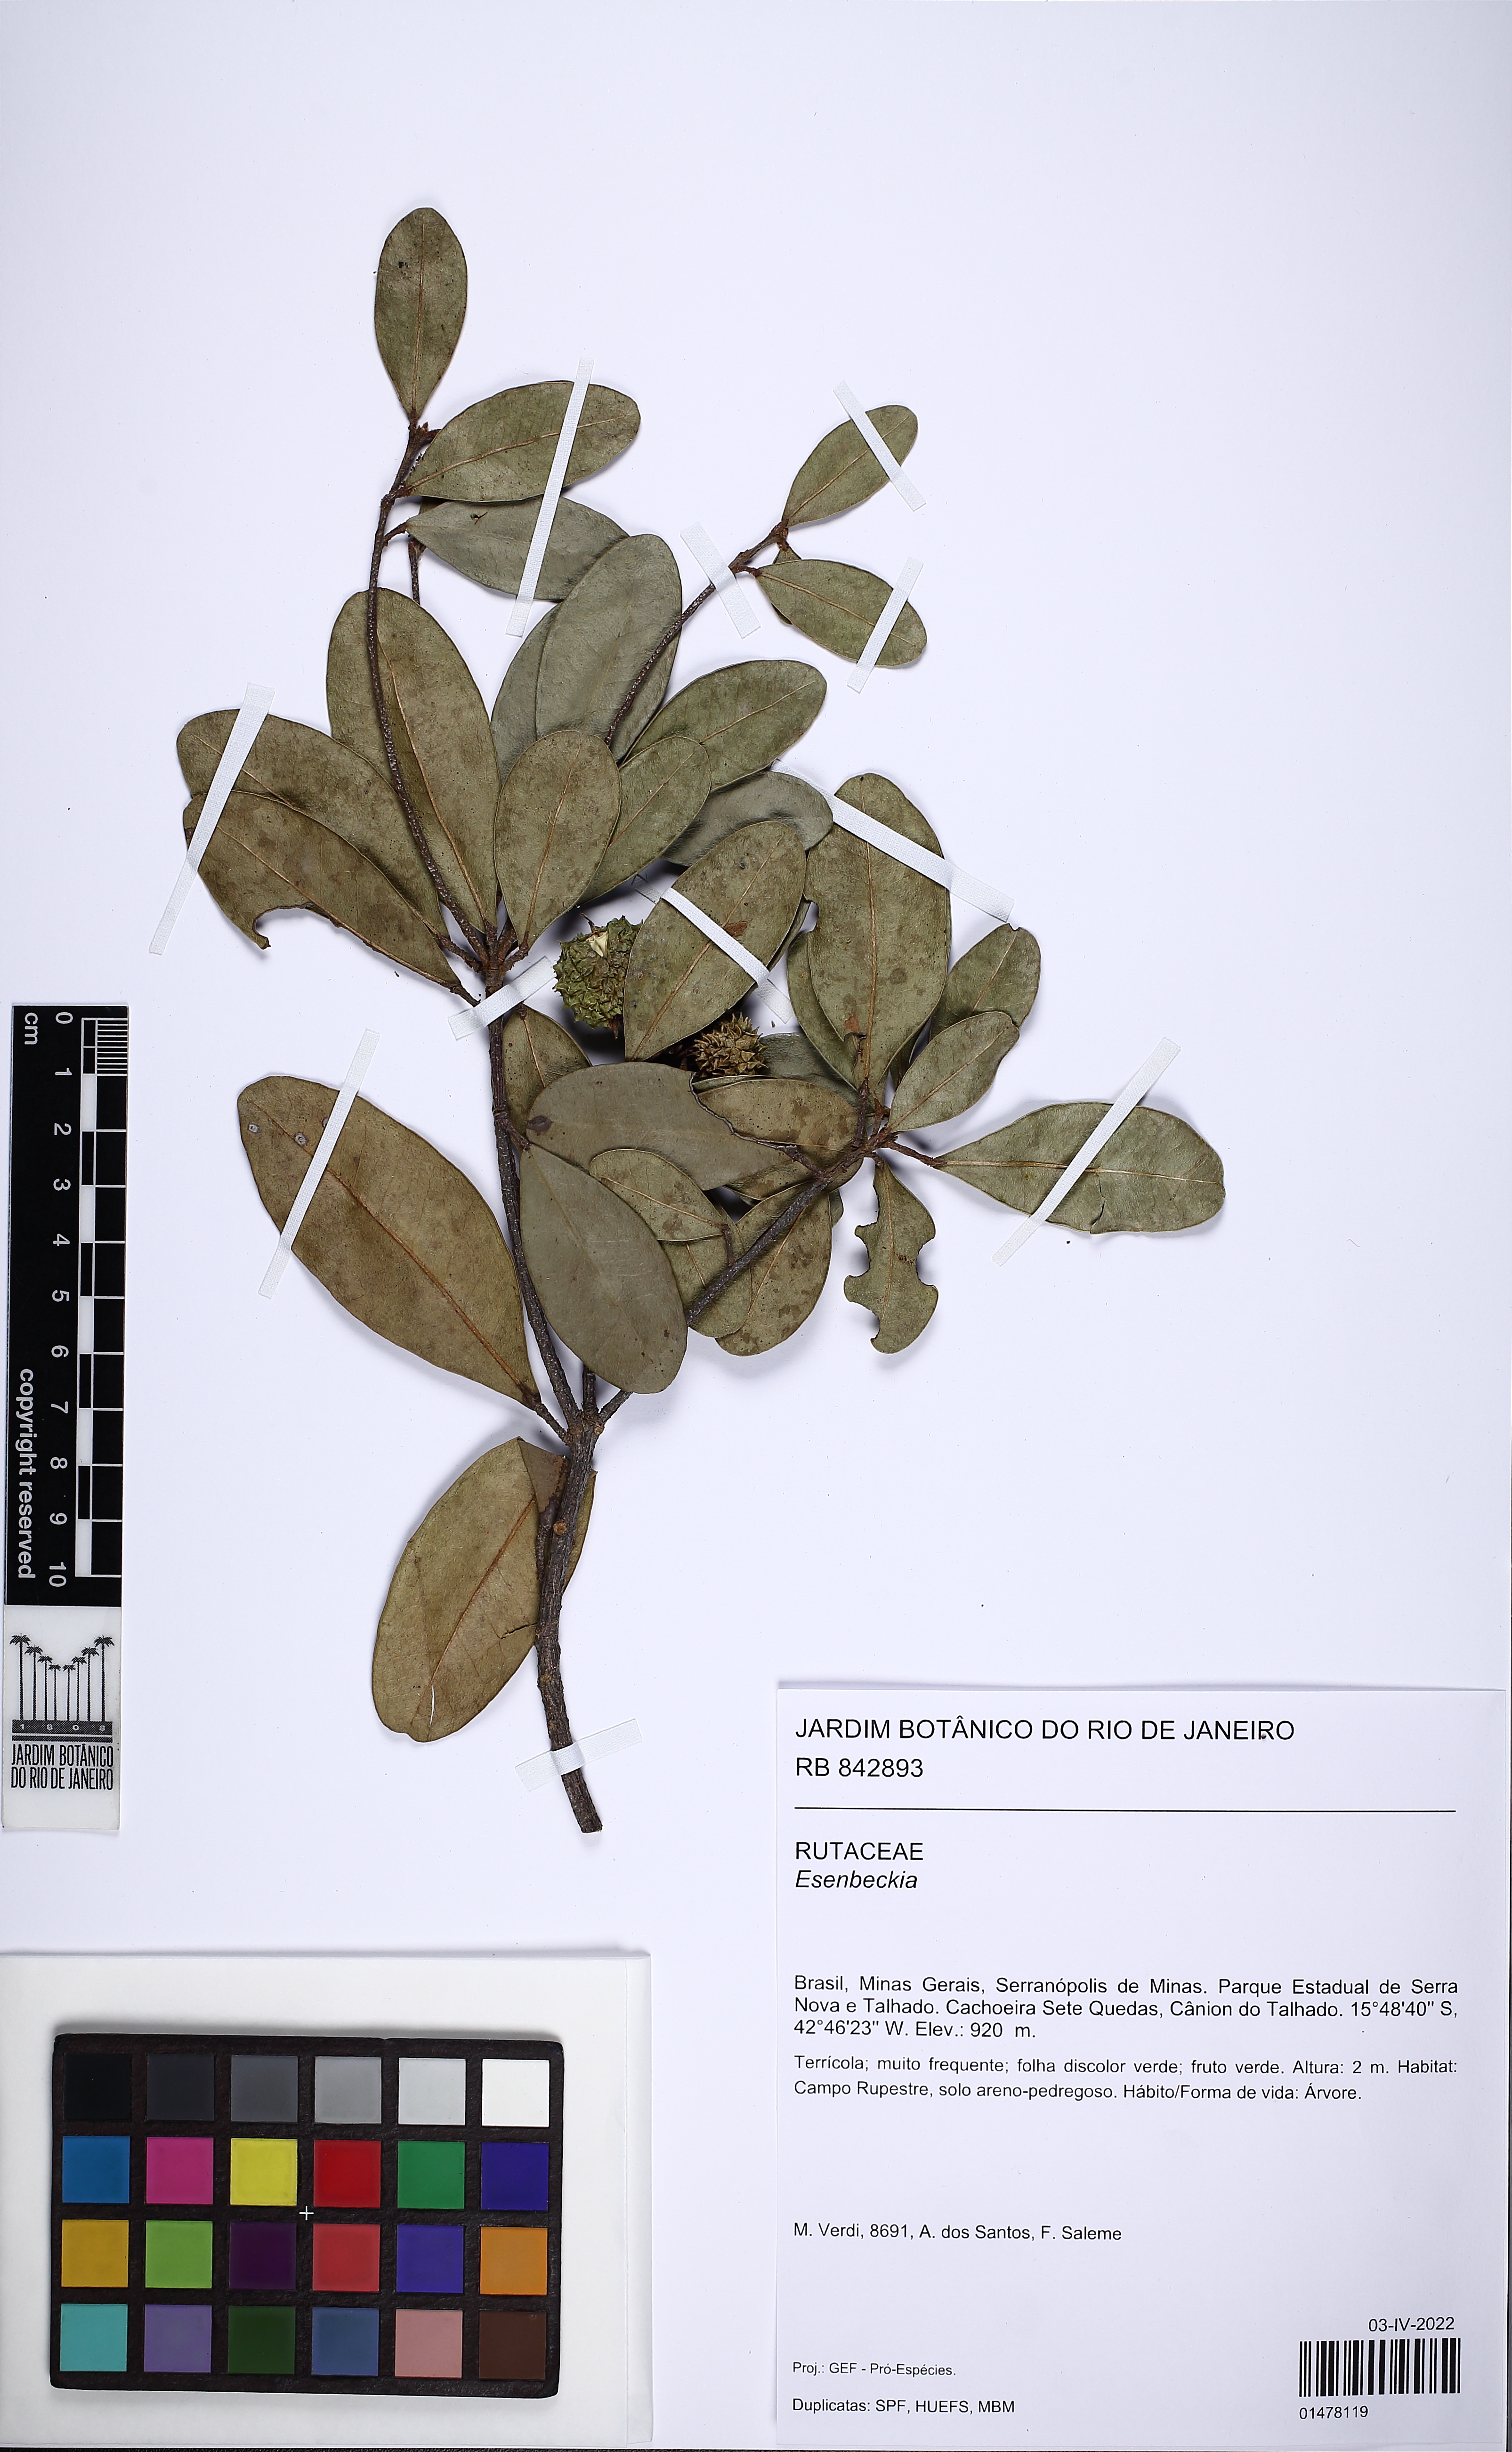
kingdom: Plantae
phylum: Tracheophyta
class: Magnoliopsida
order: Sapindales
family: Rutaceae
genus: Esenbeckia
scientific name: Esenbeckia
